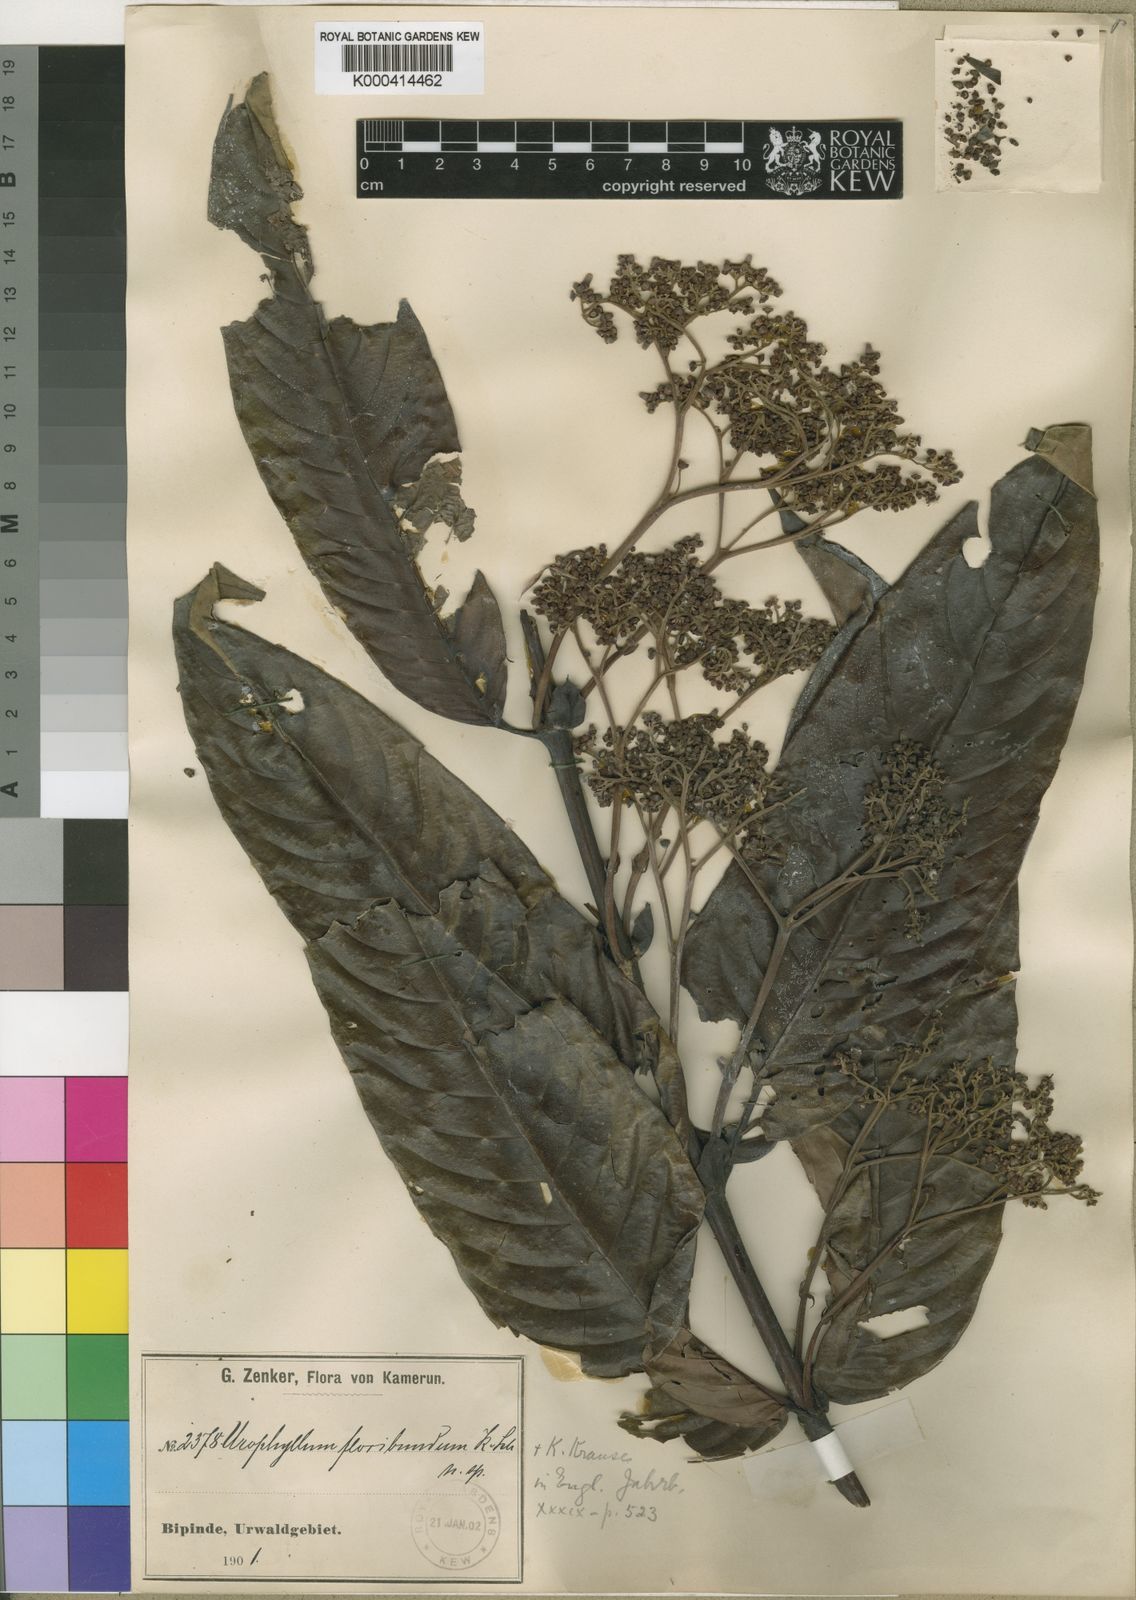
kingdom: Plantae
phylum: Tracheophyta
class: Magnoliopsida
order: Gentianales
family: Rubiaceae
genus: Pauridiantha
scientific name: Pauridiantha floribunda
